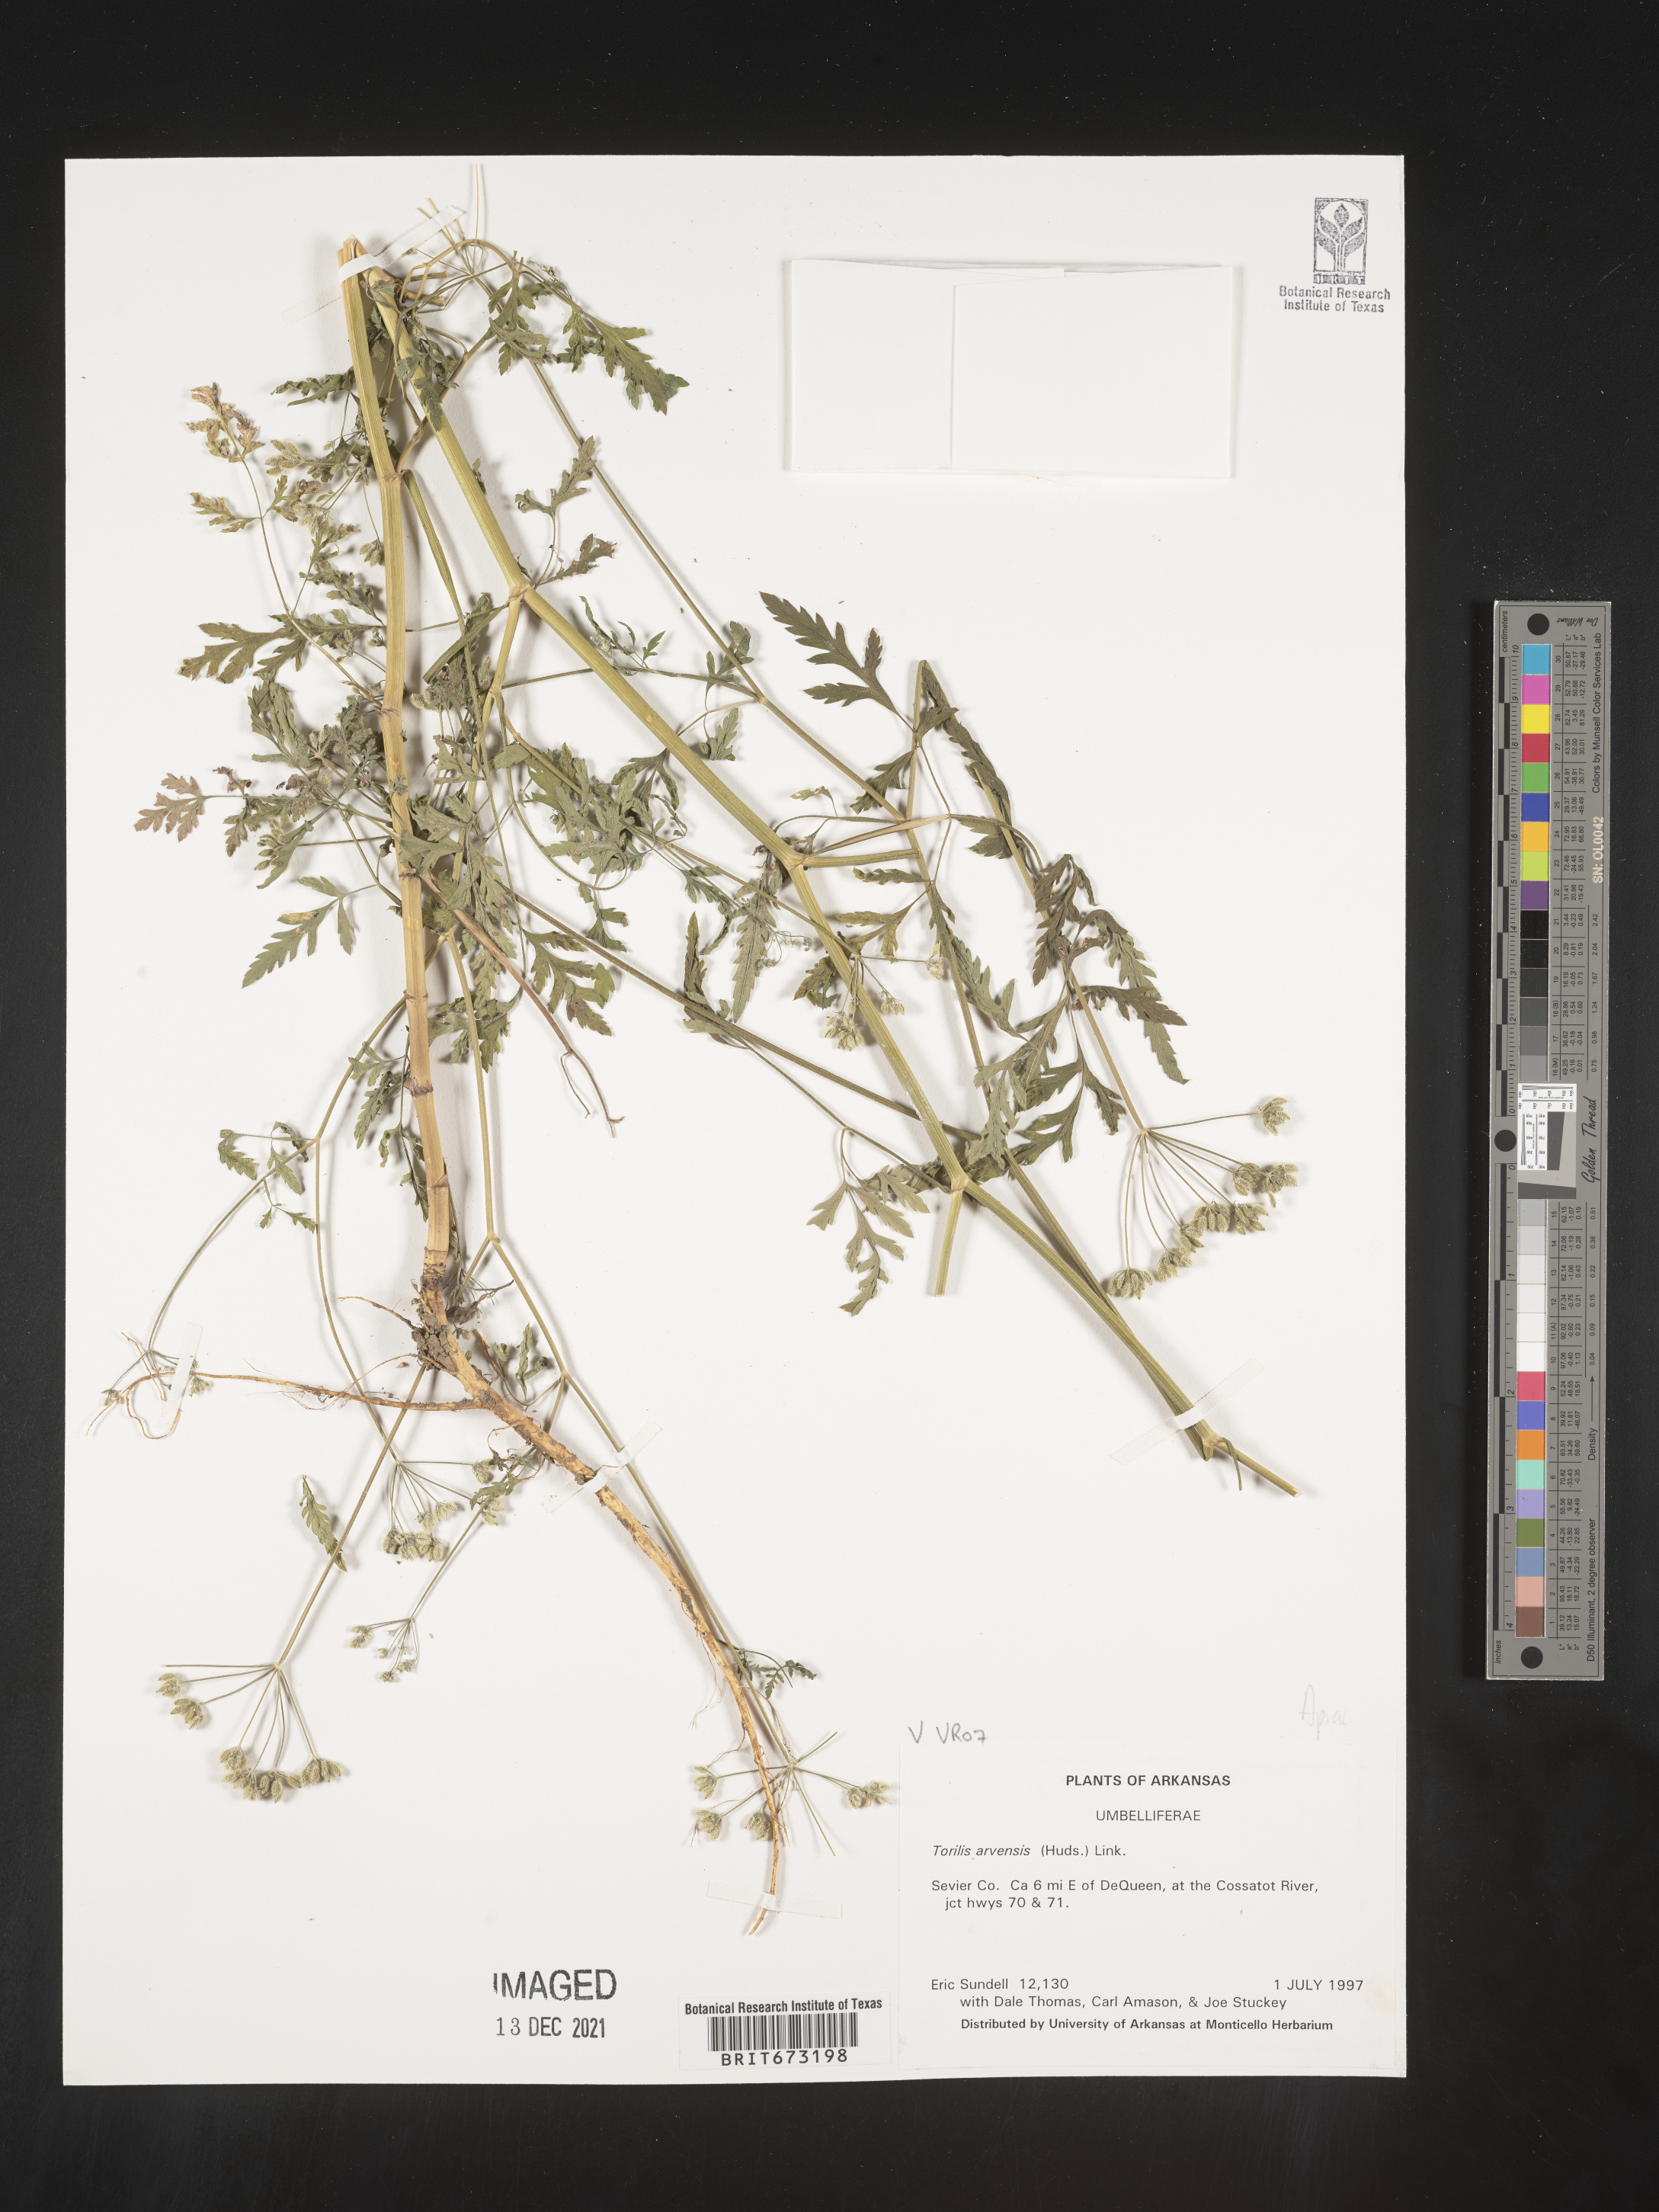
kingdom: Plantae
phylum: Tracheophyta
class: Magnoliopsida
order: Apiales
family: Apiaceae
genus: Torilis
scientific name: Torilis arvensis
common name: Spreading hedge-parsley
